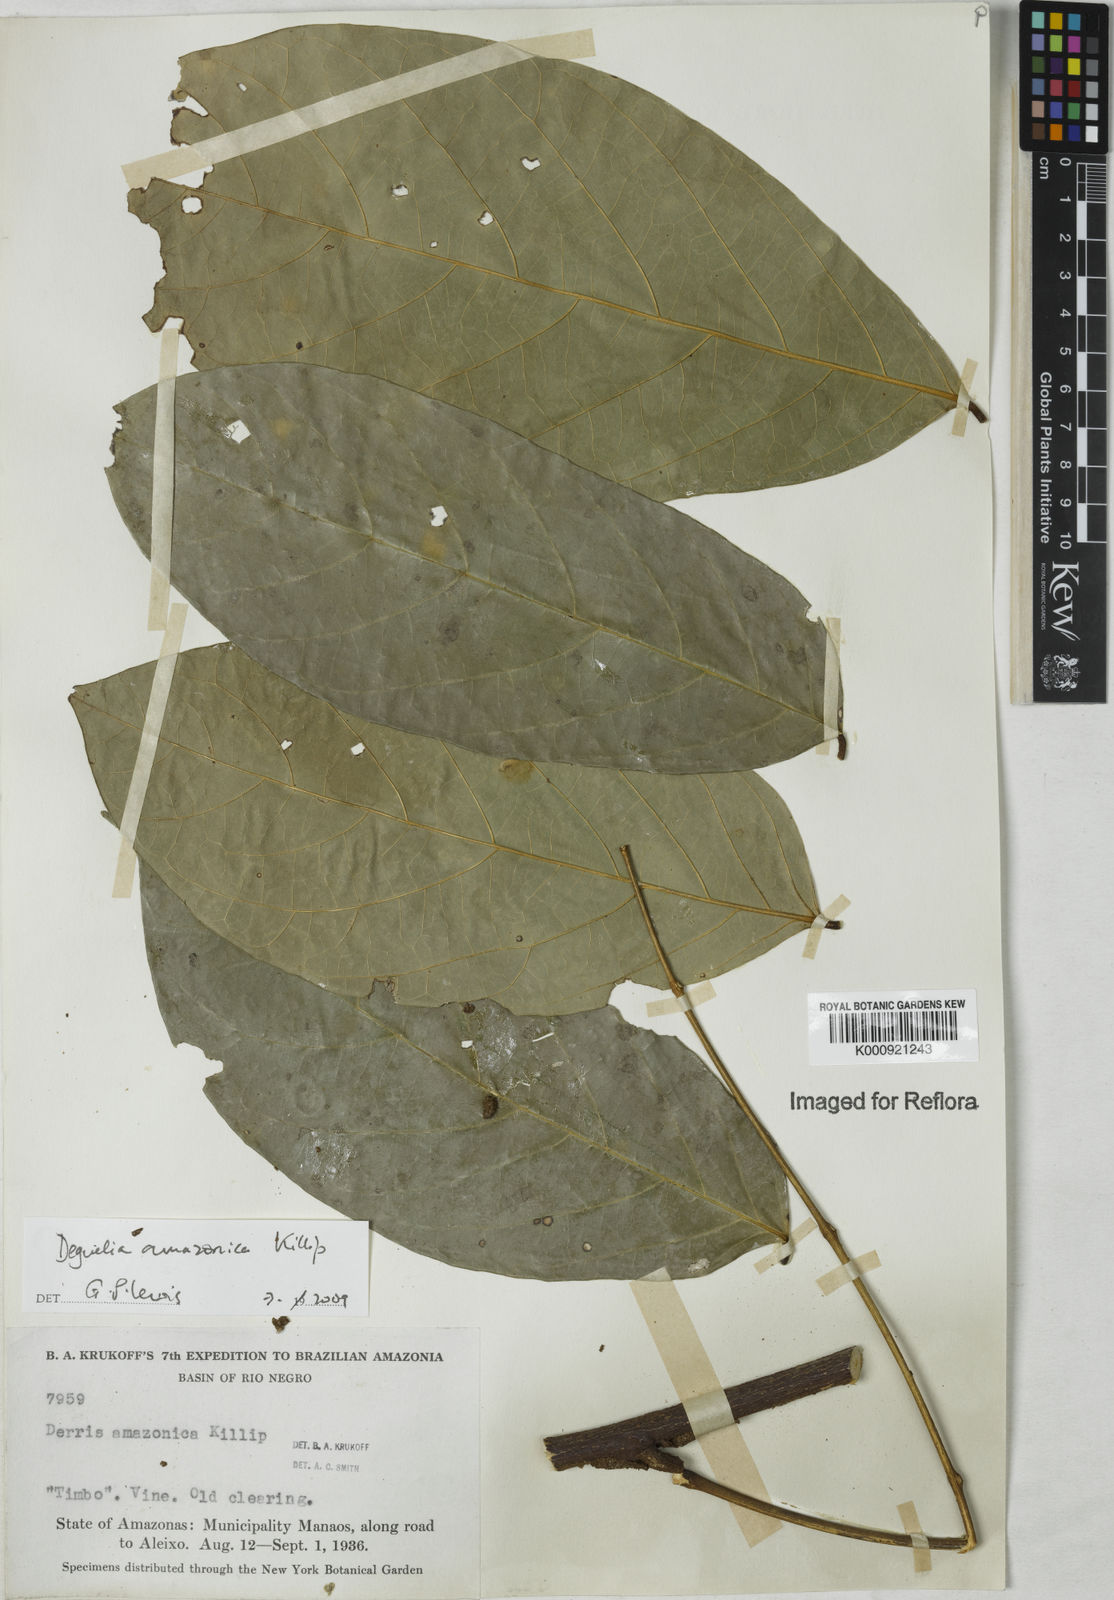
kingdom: Plantae
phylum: Tracheophyta
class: Magnoliopsida
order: Fabales
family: Fabaceae
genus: Deguelia
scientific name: Deguelia amazonica
